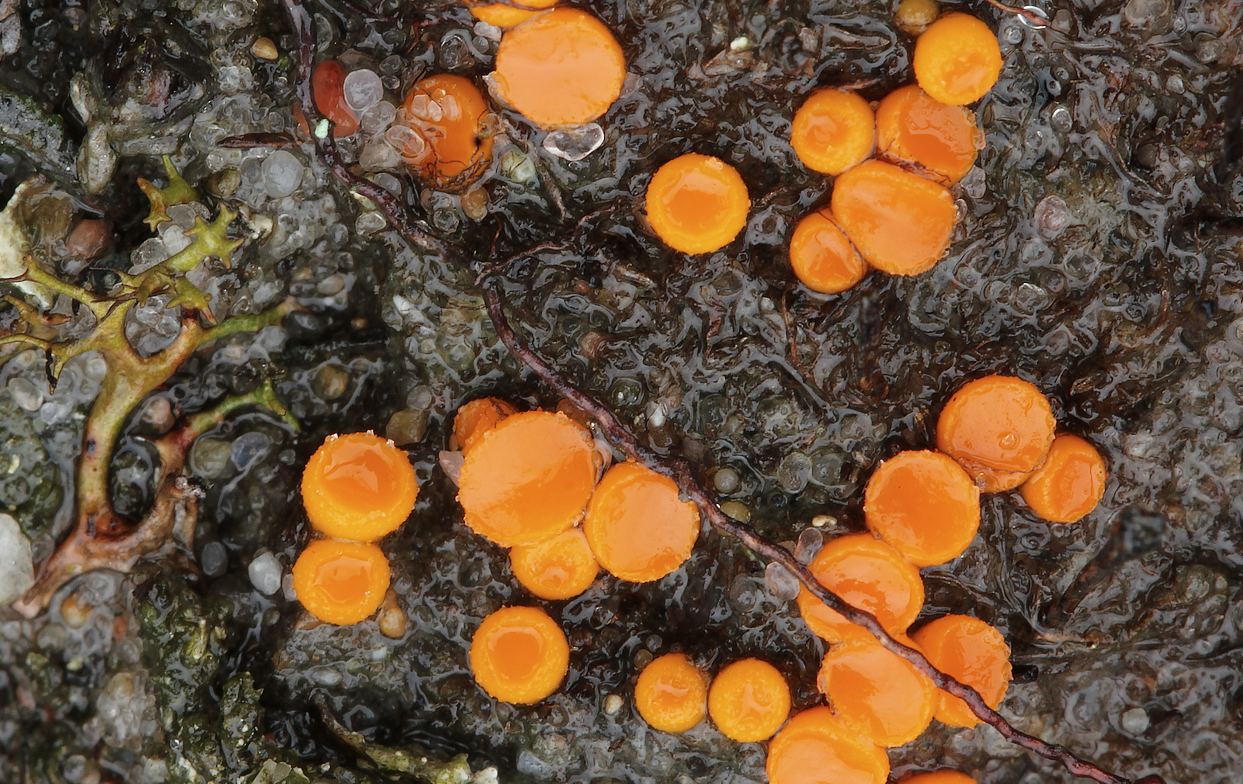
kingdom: Fungi
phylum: Ascomycota
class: Pezizomycetes
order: Pezizales
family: Pyronemataceae
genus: Byssonectria
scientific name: Byssonectria terrestris
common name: hjortebæger
